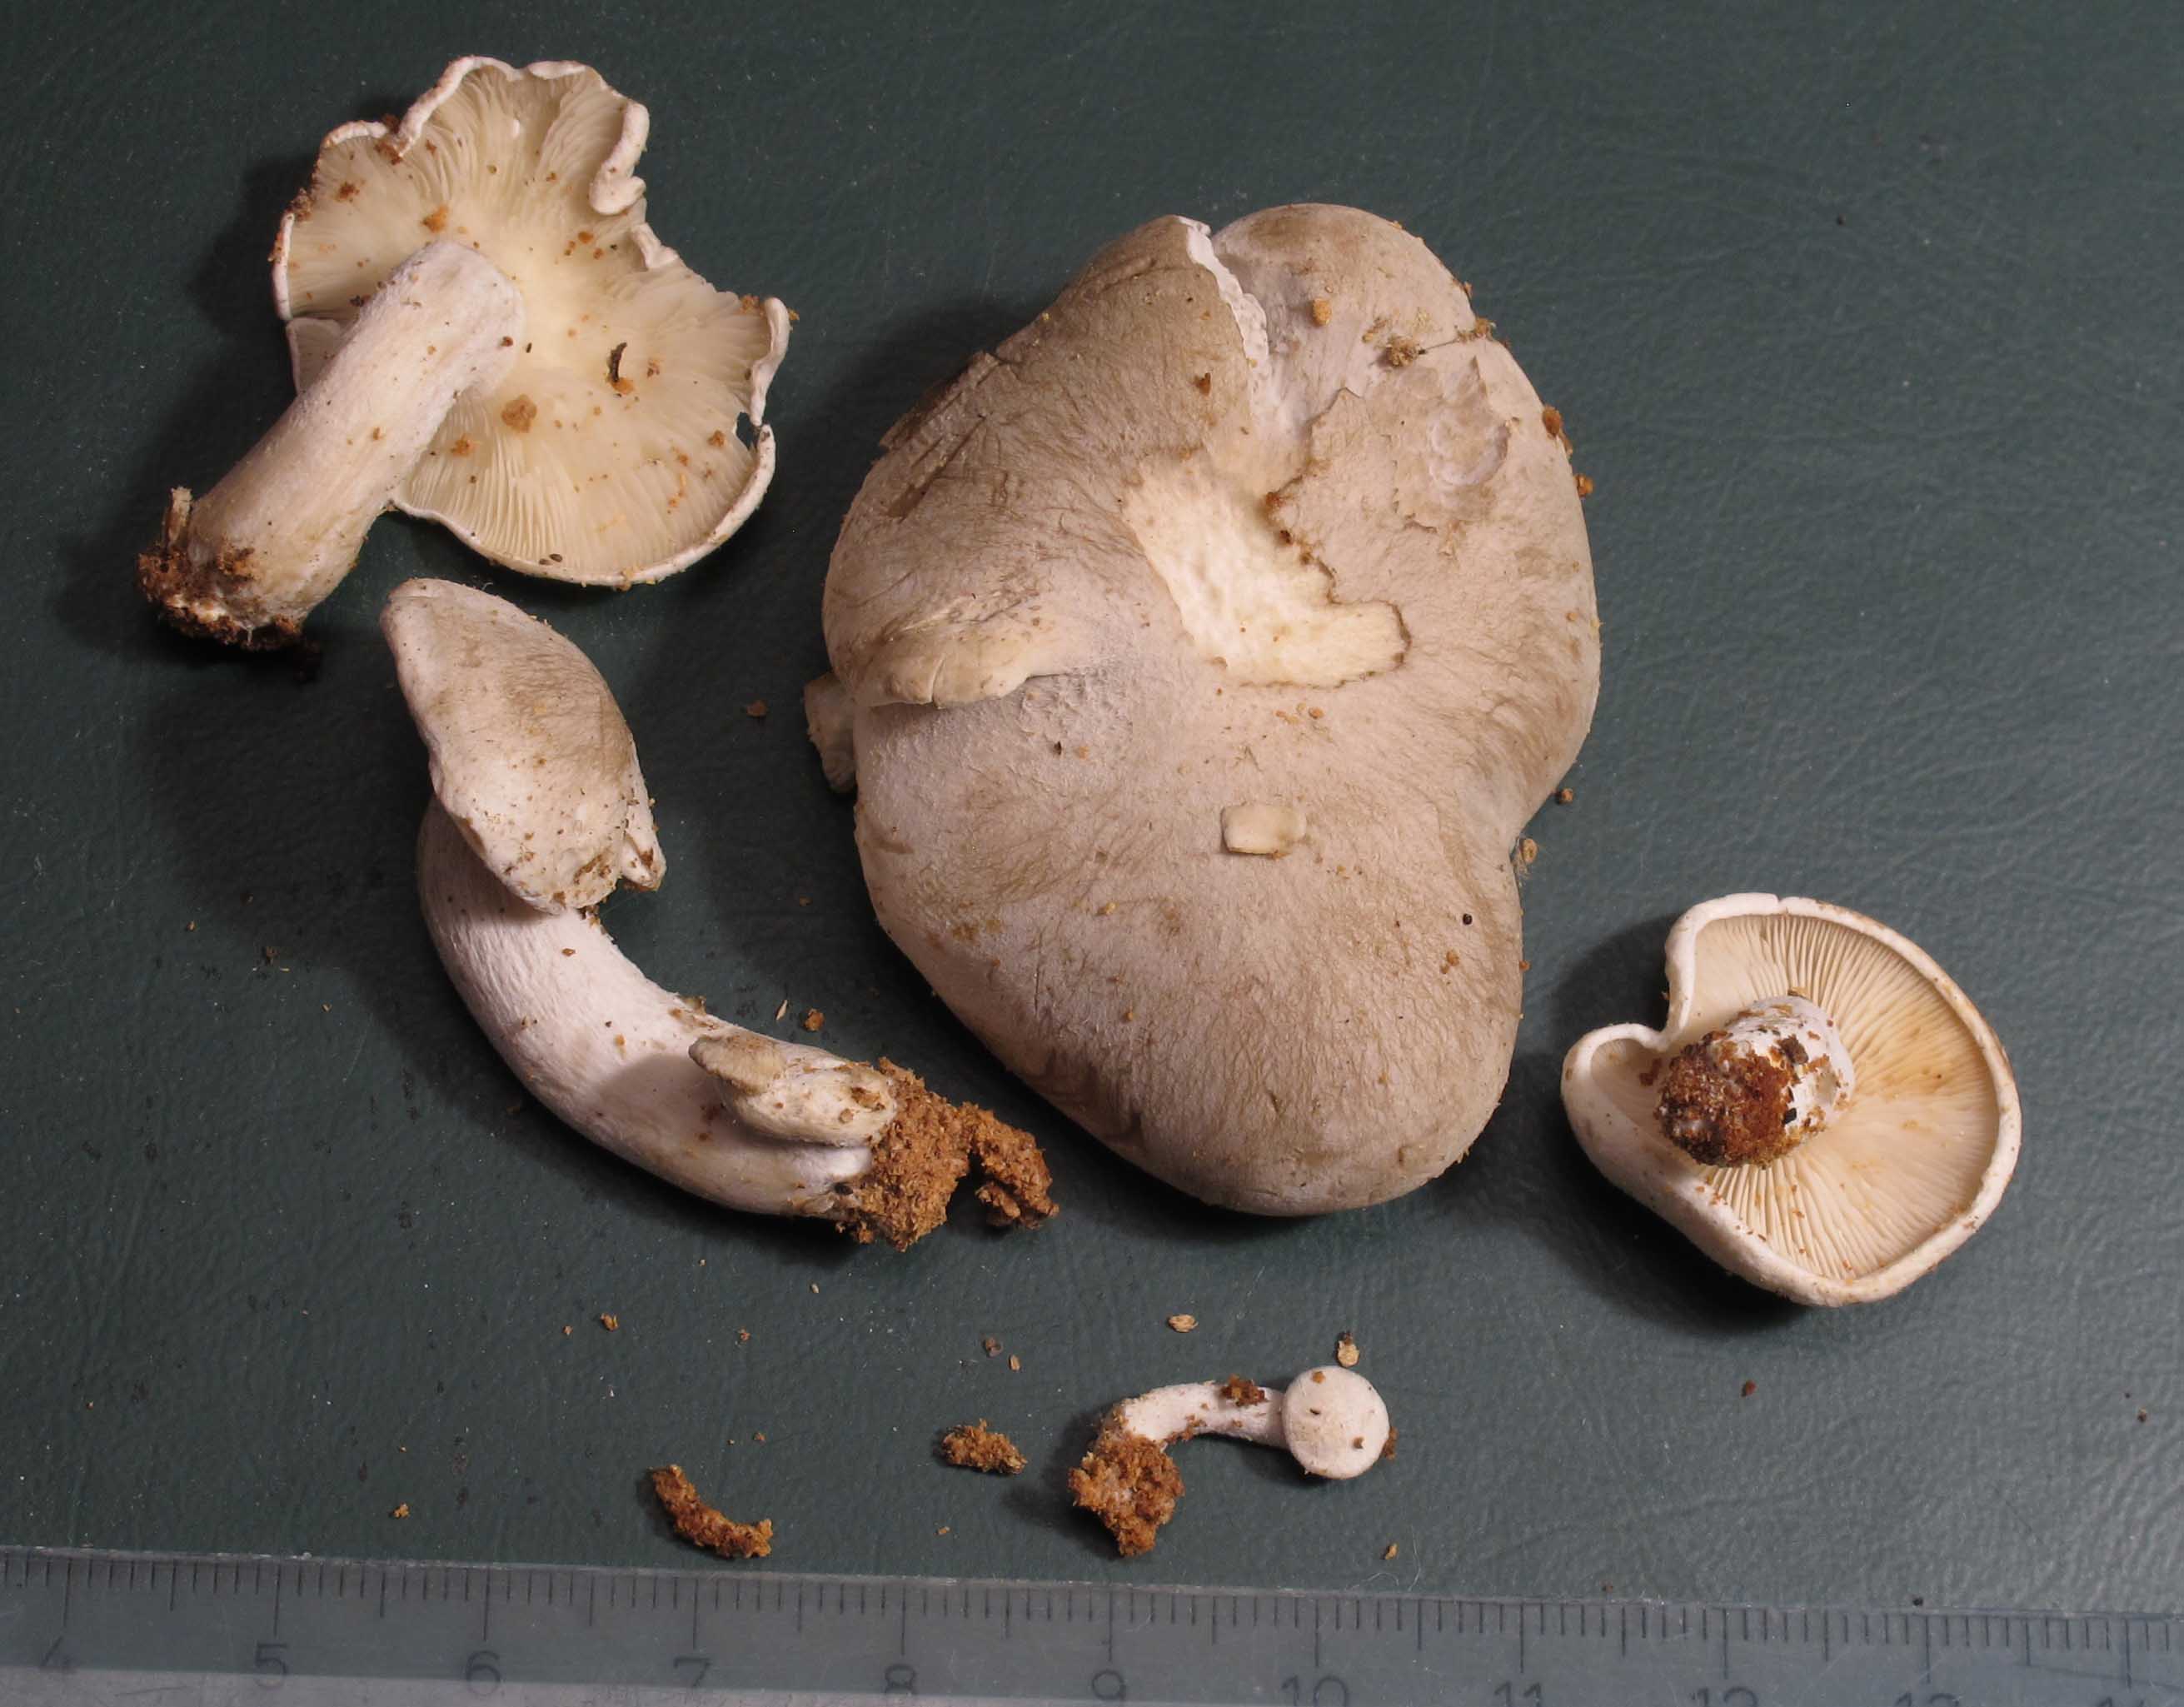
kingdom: Fungi
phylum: Basidiomycota
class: Agaricomycetes
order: Agaricales
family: Lyophyllaceae
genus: Ossicaulis
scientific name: Ossicaulis lignatilis
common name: hvidlig vedtragthat
